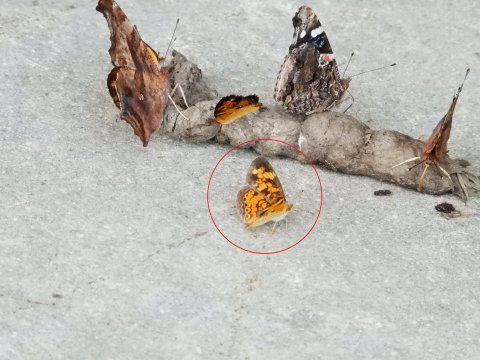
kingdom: Animalia
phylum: Arthropoda
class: Insecta
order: Lepidoptera
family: Nymphalidae
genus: Phyciodes
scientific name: Phyciodes tharos
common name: Pearl Crescent
